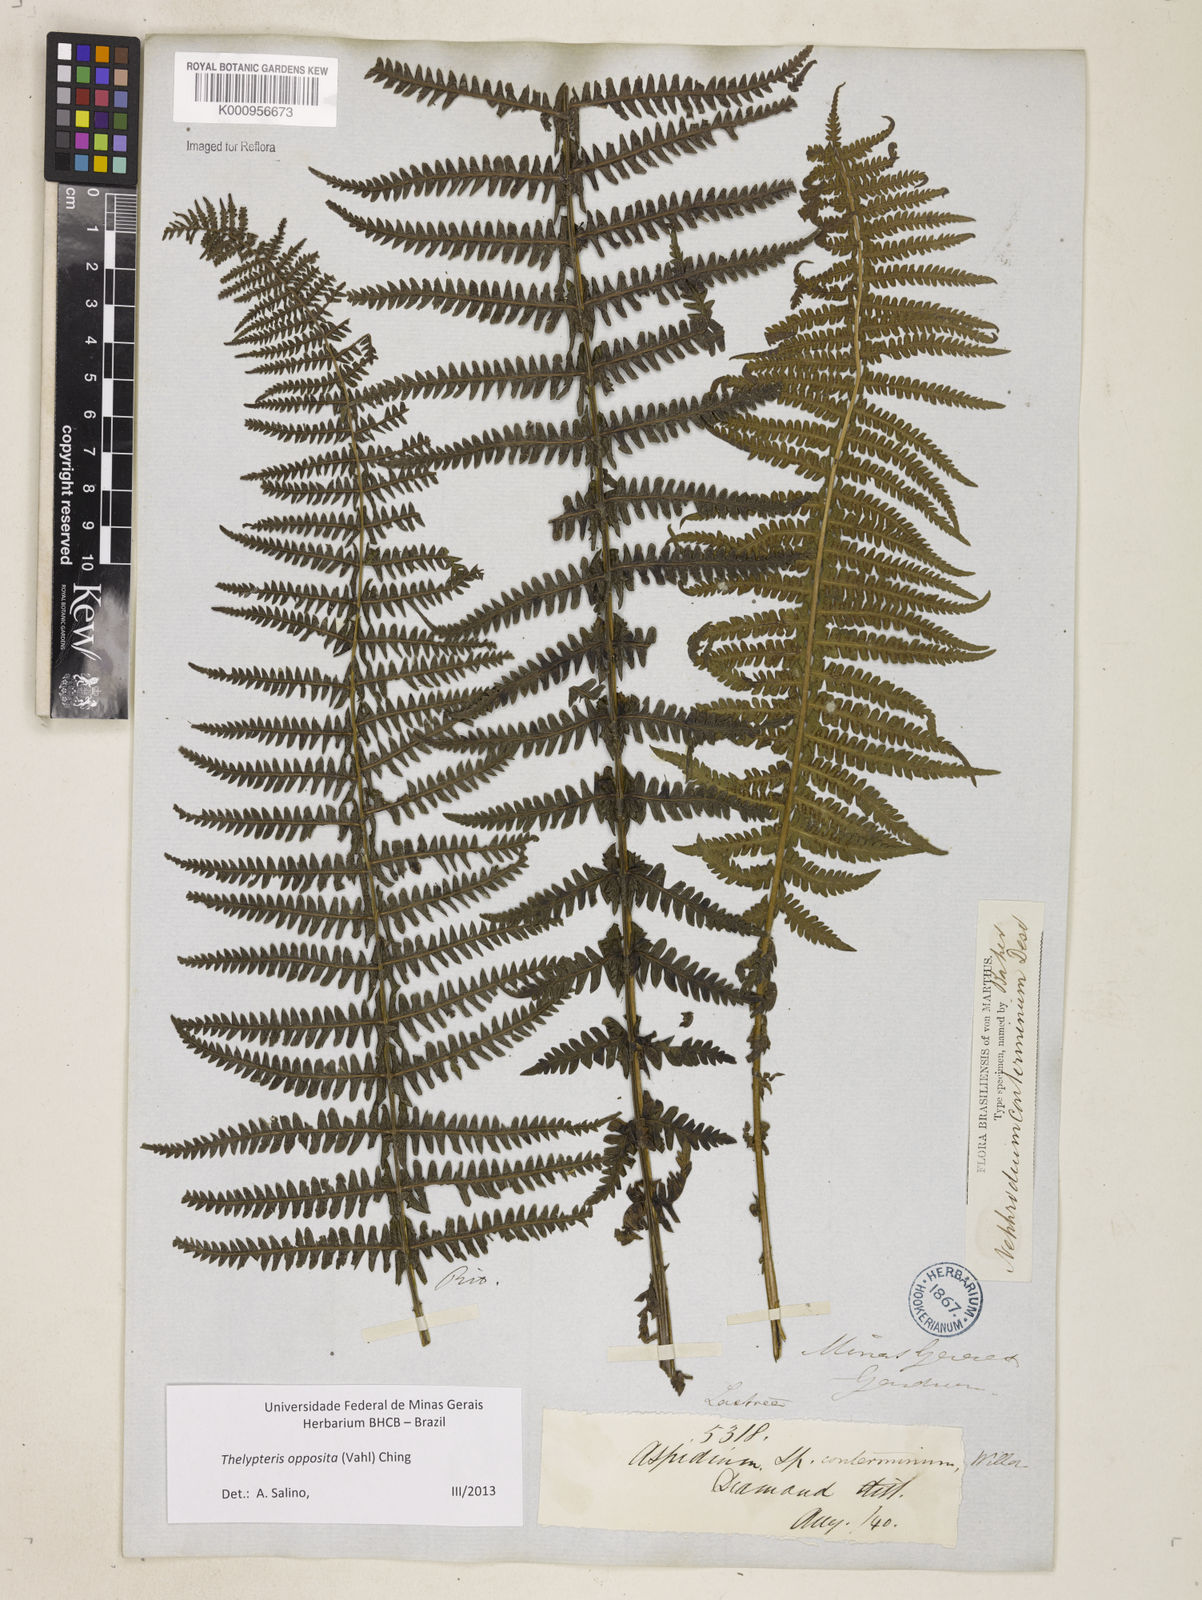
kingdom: Plantae
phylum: Tracheophyta
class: Polypodiopsida
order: Polypodiales
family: Thelypteridaceae
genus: Amauropelta
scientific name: Amauropelta opposita
